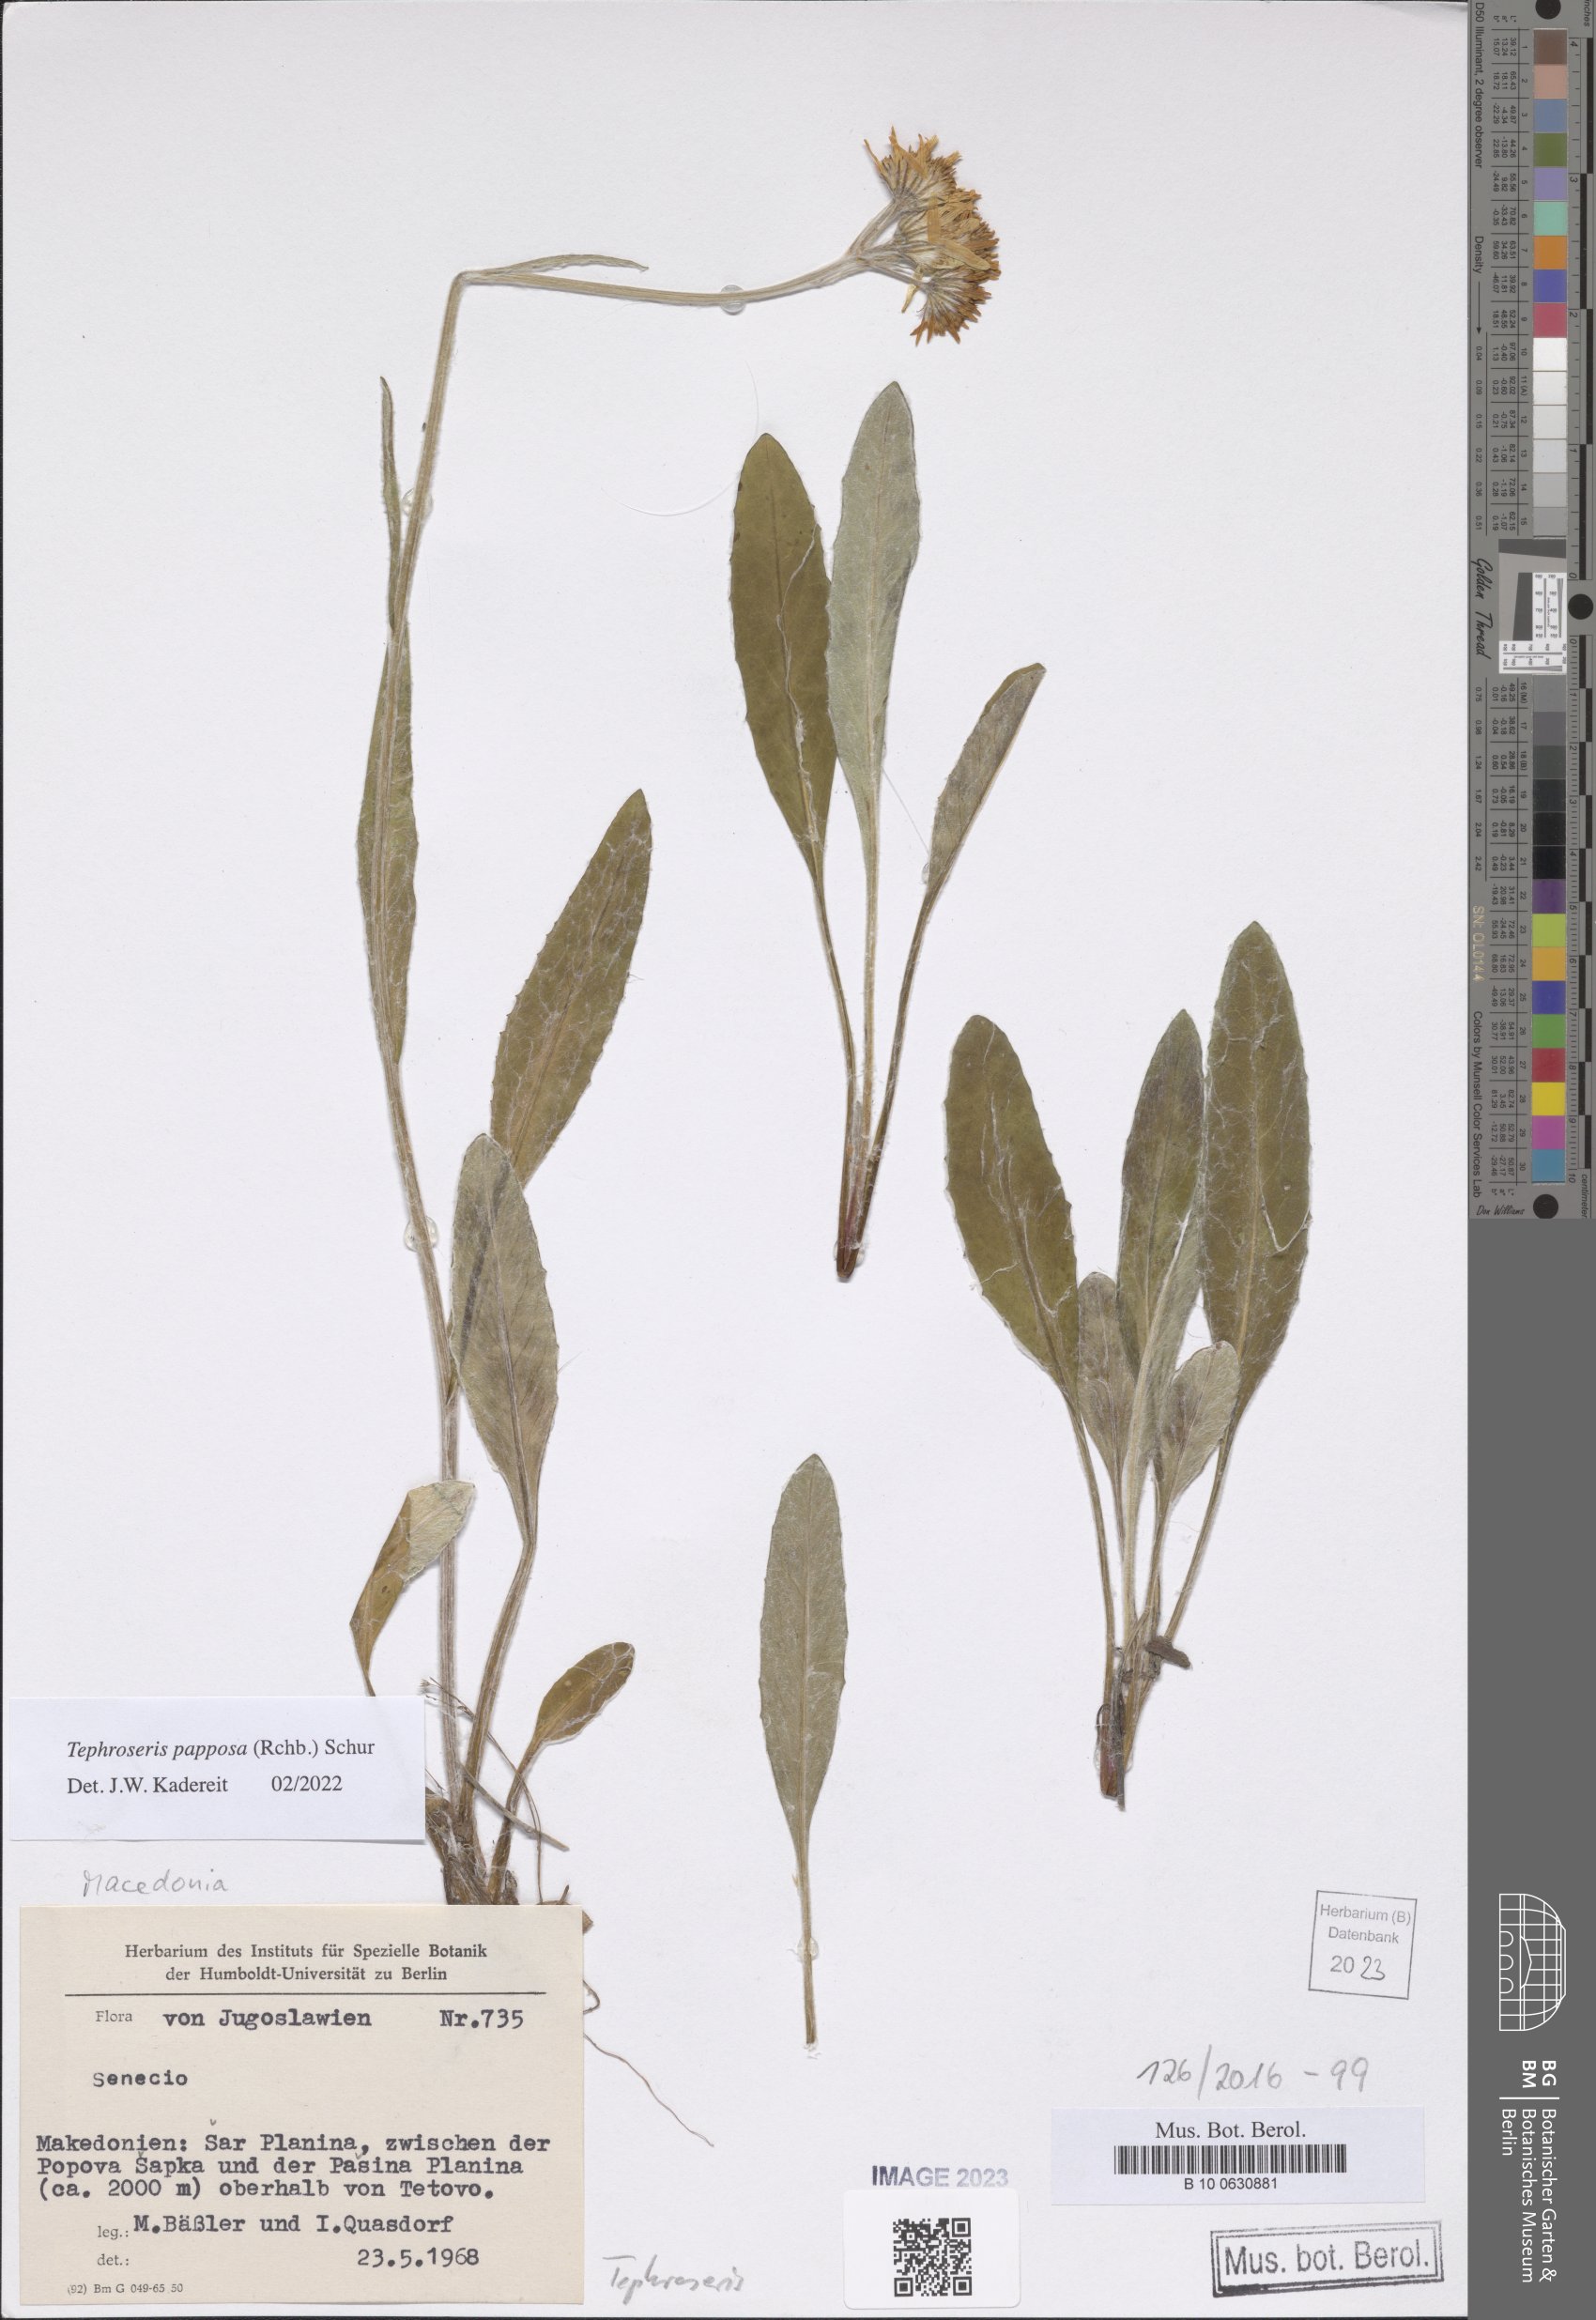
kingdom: Plantae
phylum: Tracheophyta
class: Magnoliopsida
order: Asterales
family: Asteraceae
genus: Tephroseris
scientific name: Tephroseris papposa
